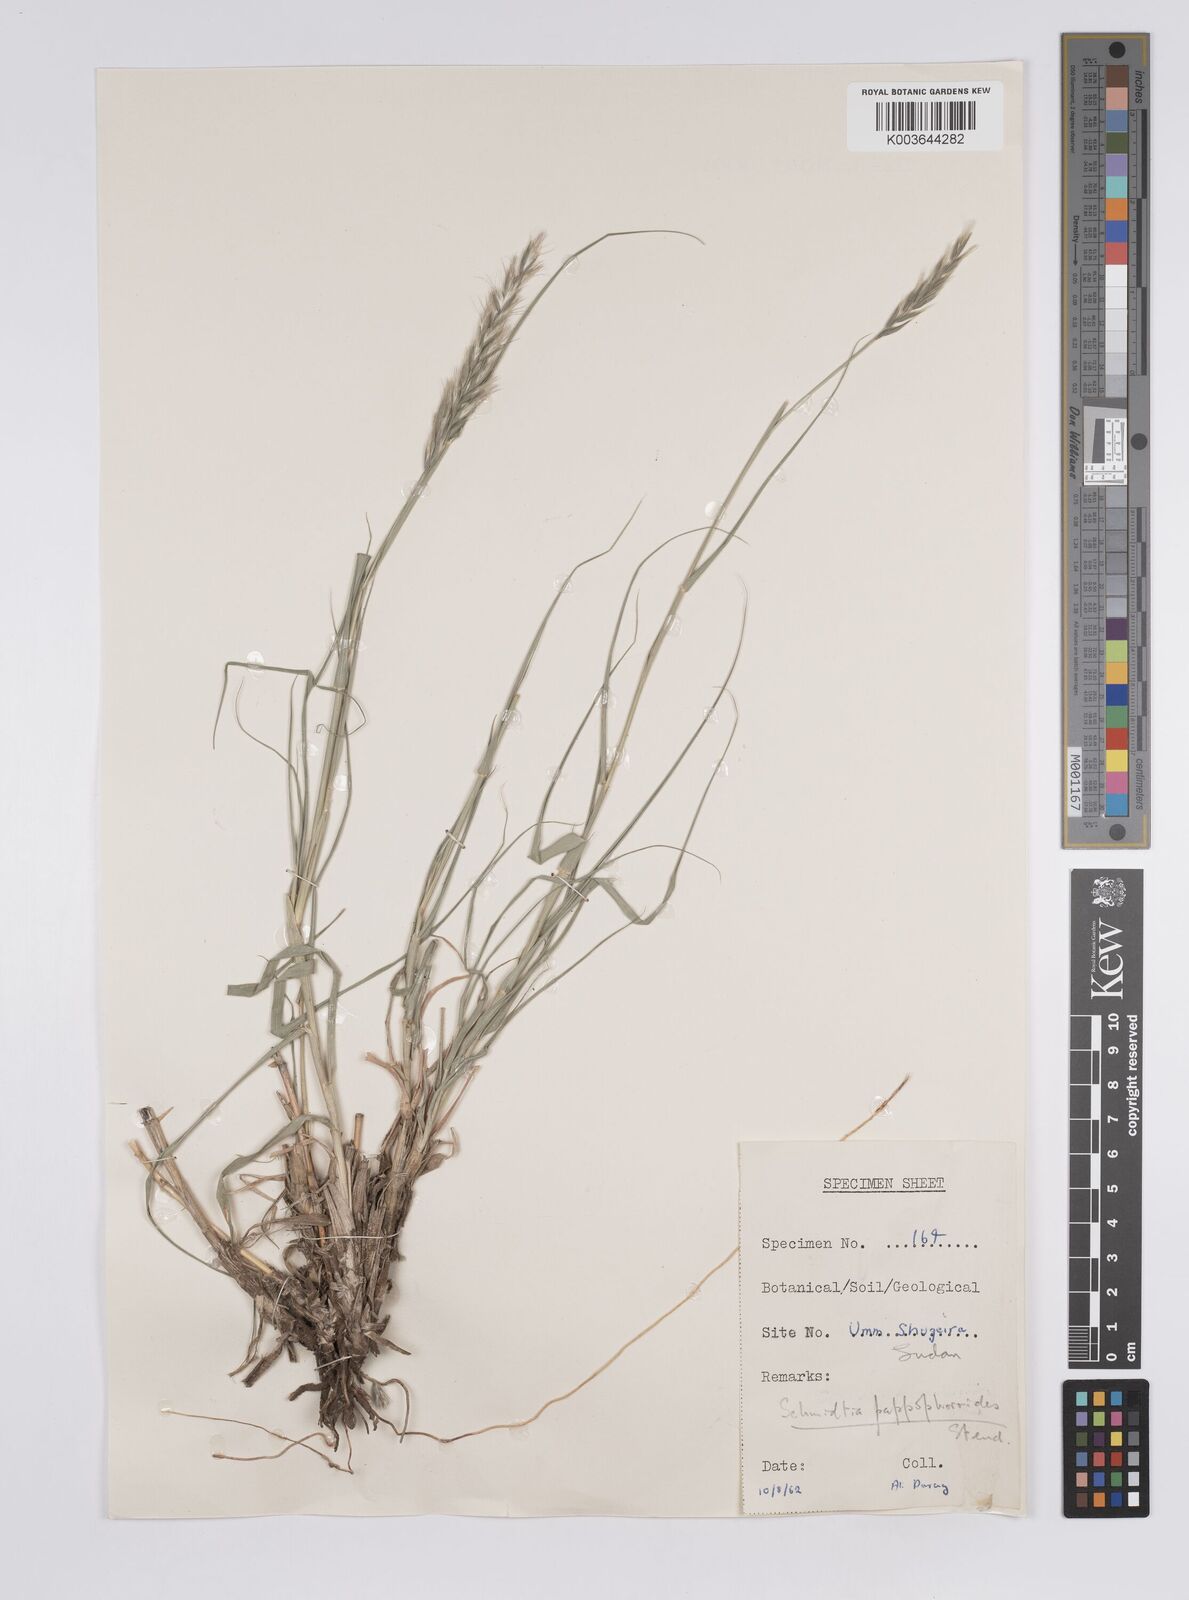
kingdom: Plantae
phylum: Tracheophyta
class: Liliopsida
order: Poales
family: Poaceae
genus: Schmidtia
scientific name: Schmidtia pappophoroides
